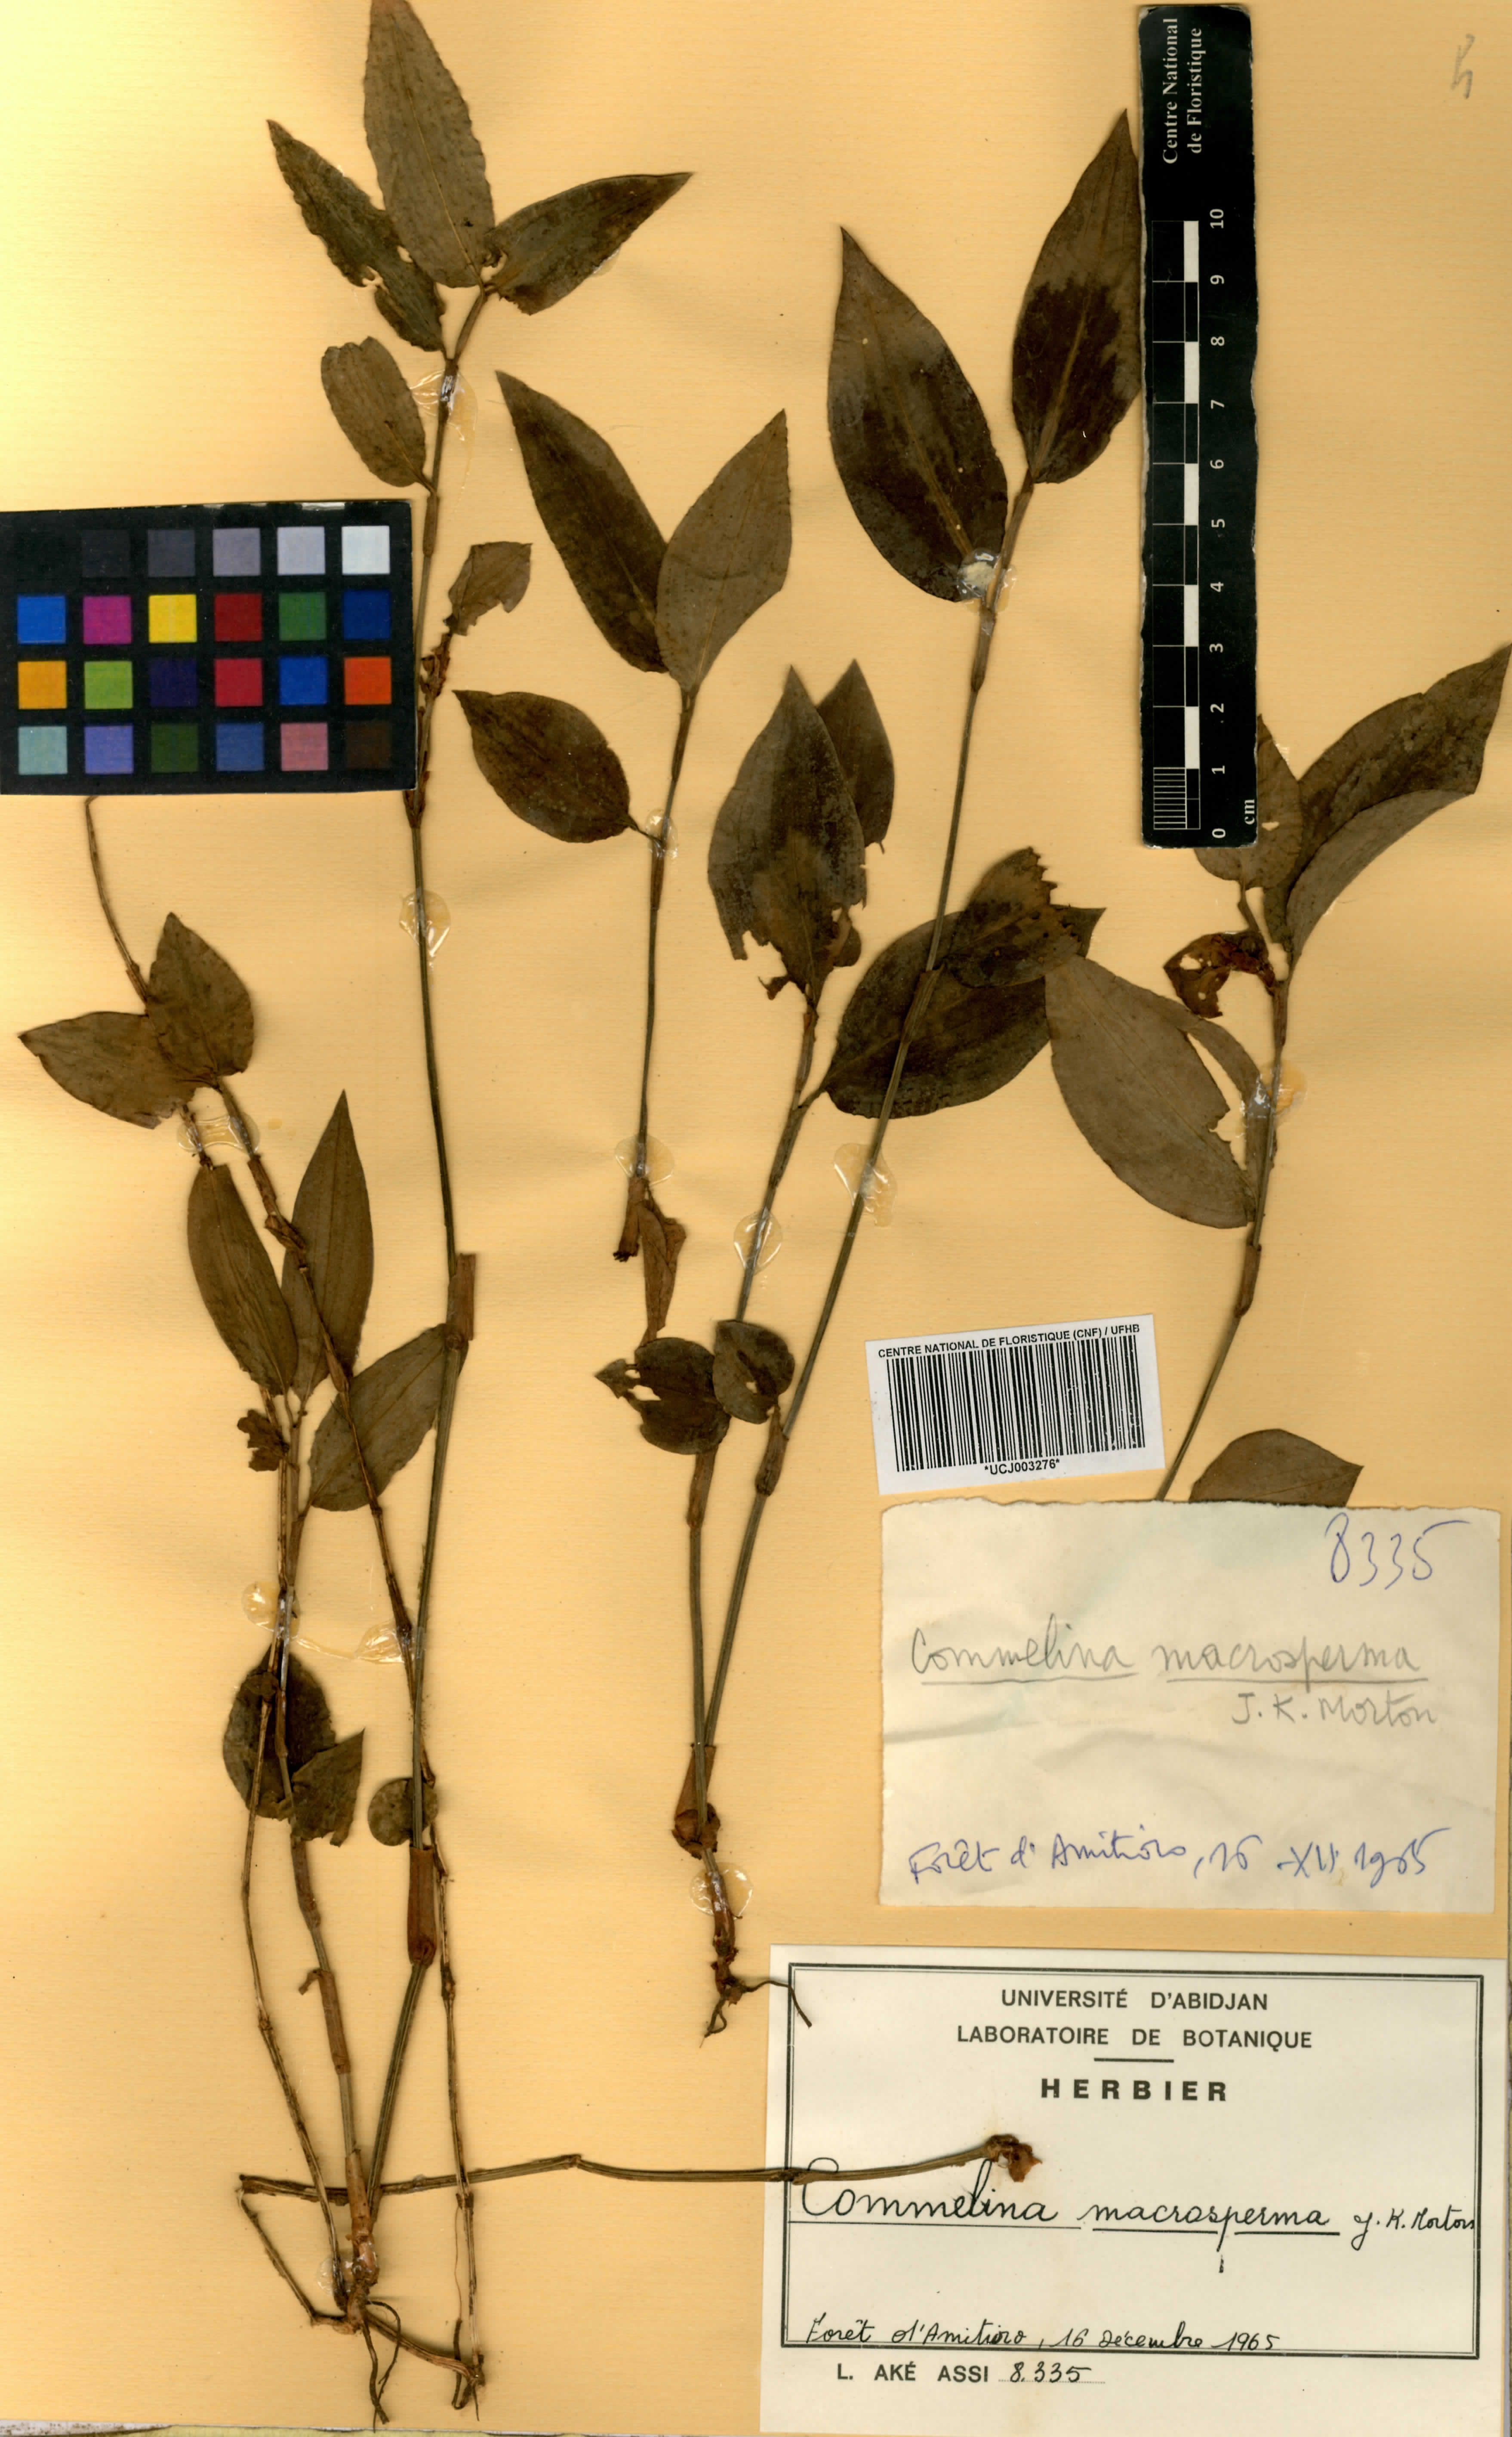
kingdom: Plantae
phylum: Tracheophyta
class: Liliopsida
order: Commelinales
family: Commelinaceae
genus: Commelina
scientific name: Commelina macrosperma
